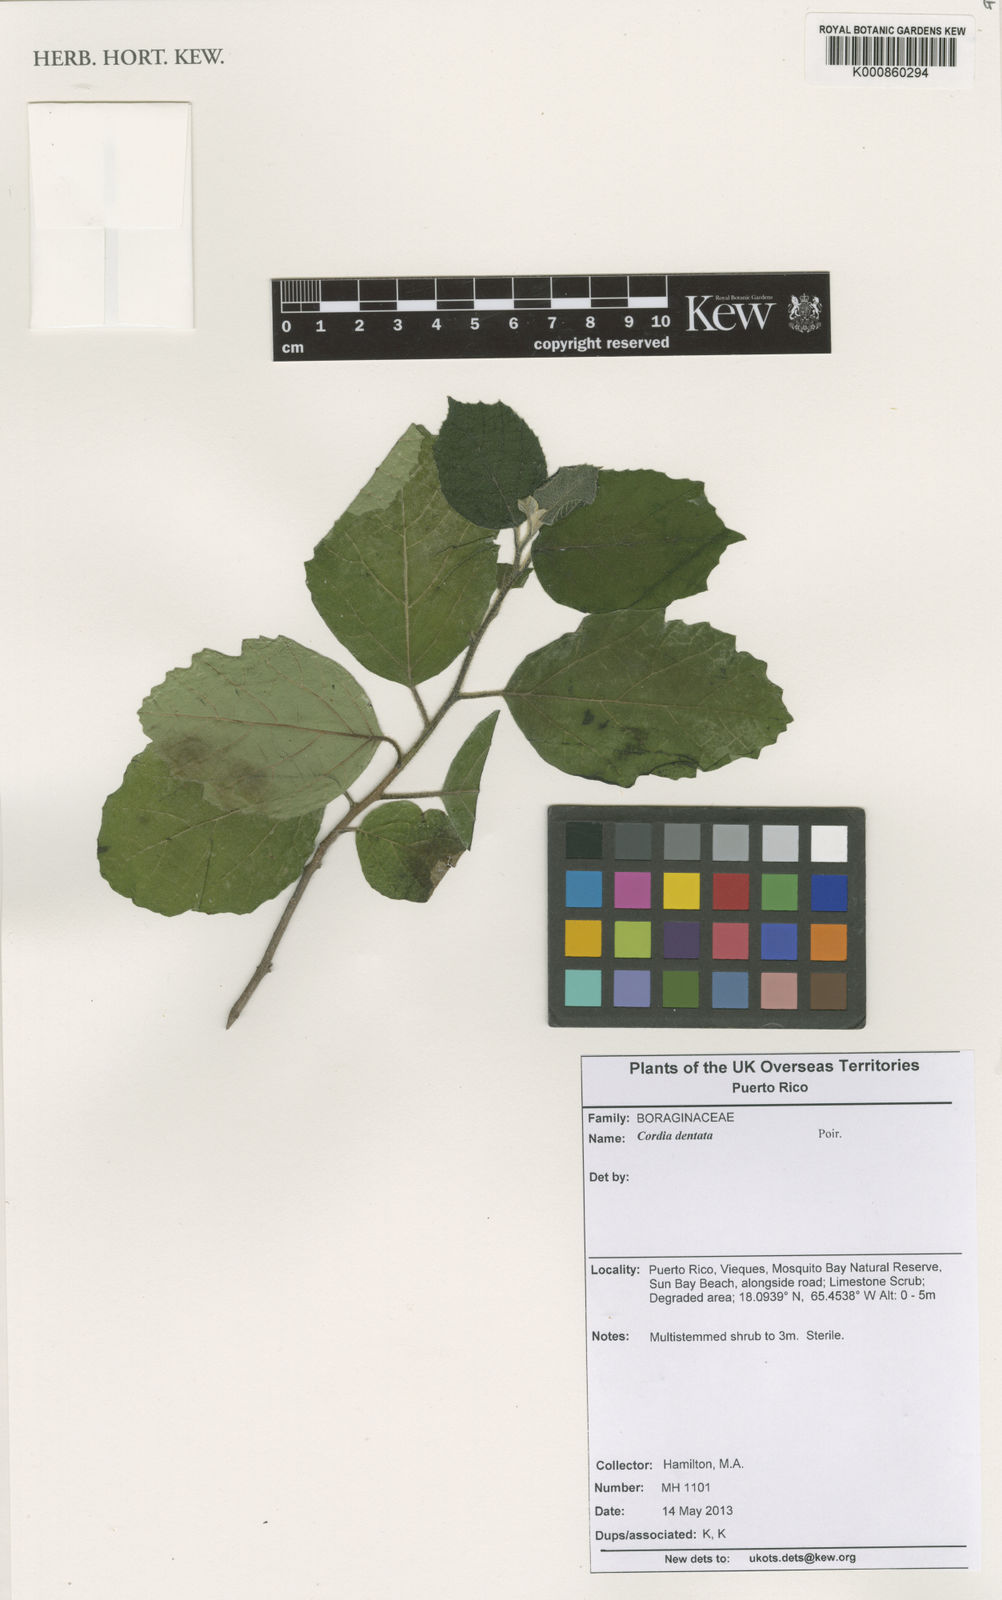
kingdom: Plantae
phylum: Tracheophyta
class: Magnoliopsida
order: Boraginales
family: Cordiaceae
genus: Cordia
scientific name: Cordia dentata
